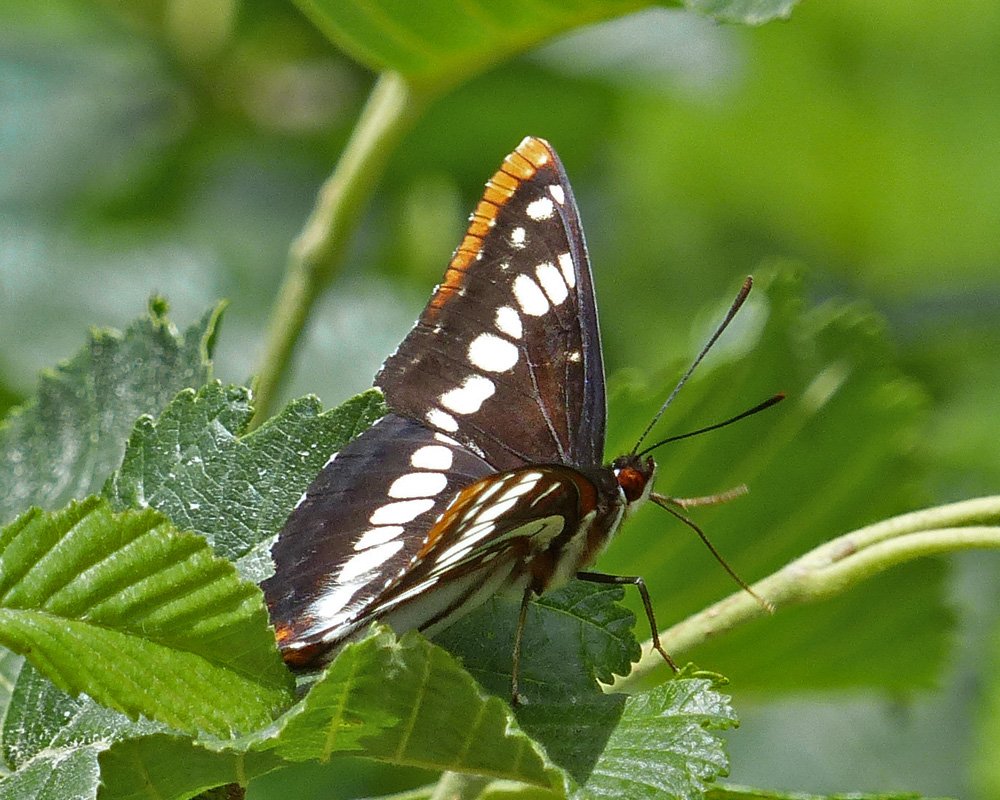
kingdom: Animalia
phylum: Arthropoda
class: Insecta
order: Lepidoptera
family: Nymphalidae
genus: Limenitis
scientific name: Limenitis lorquini
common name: Lorquin's Admiral
